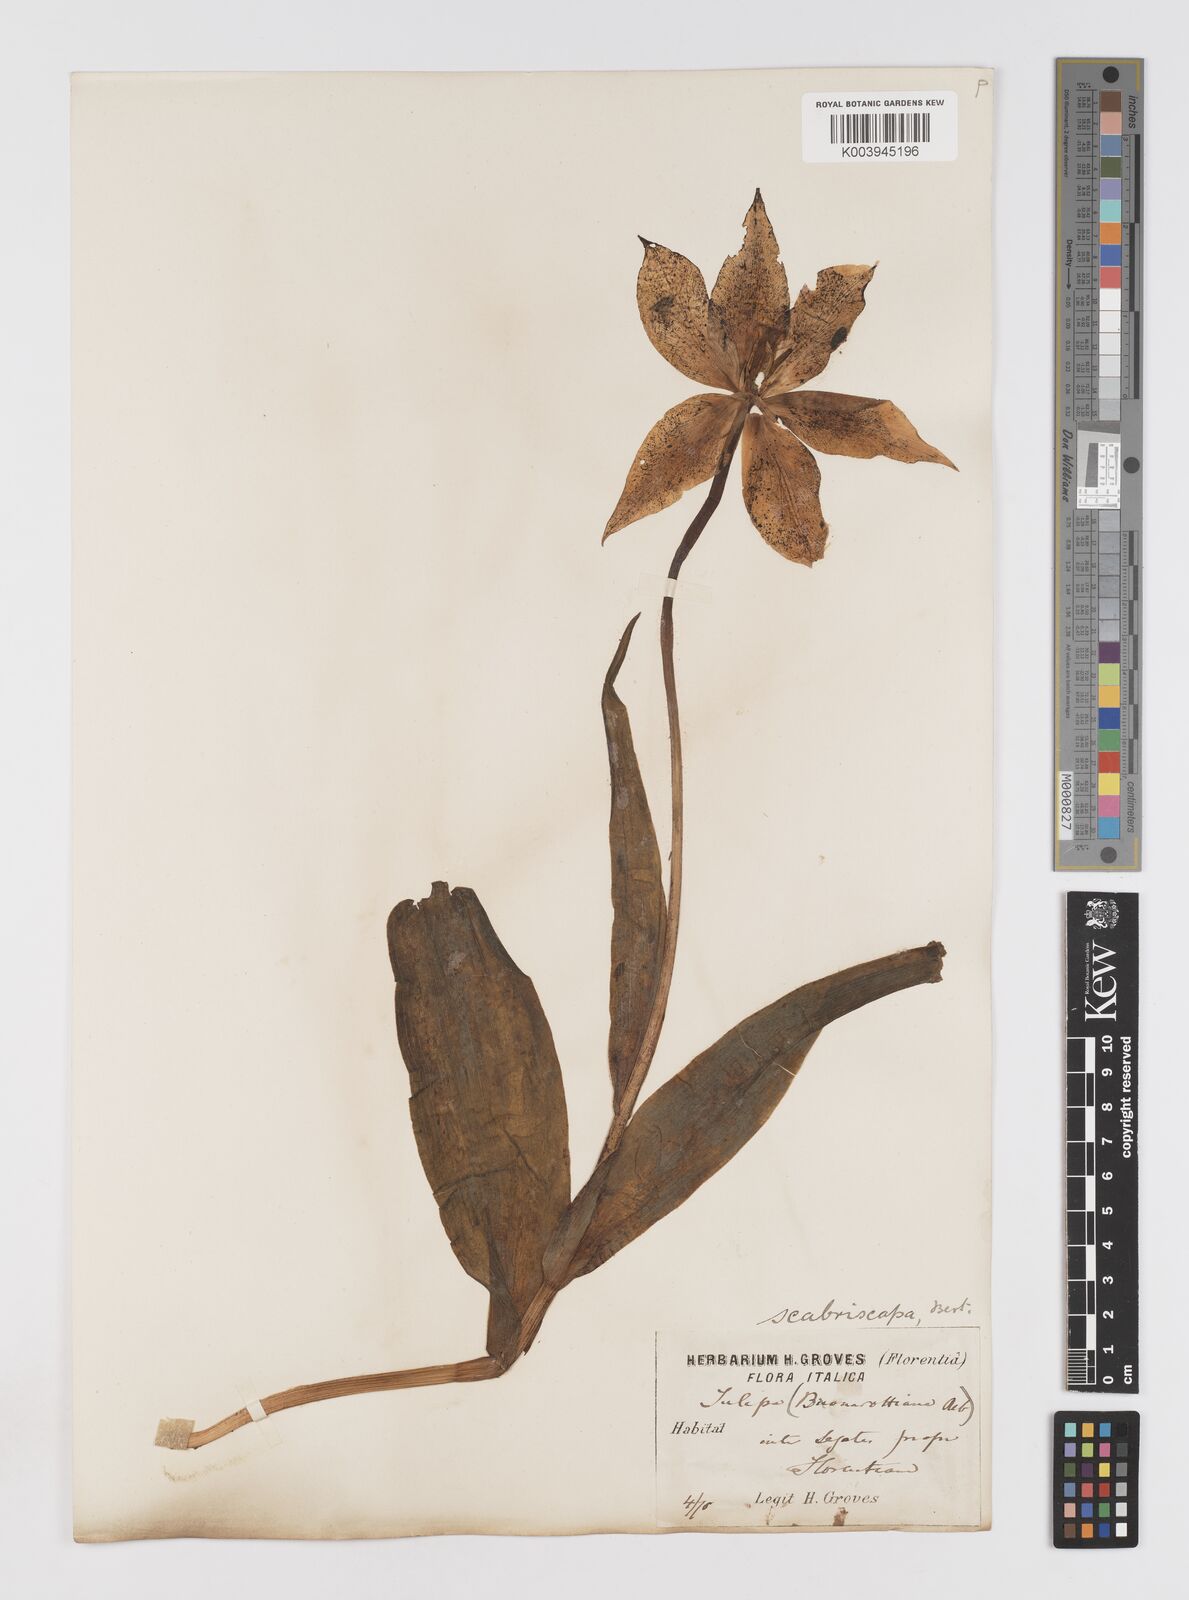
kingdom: Plantae
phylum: Tracheophyta
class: Liliopsida
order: Liliales
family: Liliaceae
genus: Tulipa
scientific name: Tulipa gesneriana
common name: Garden tulip
